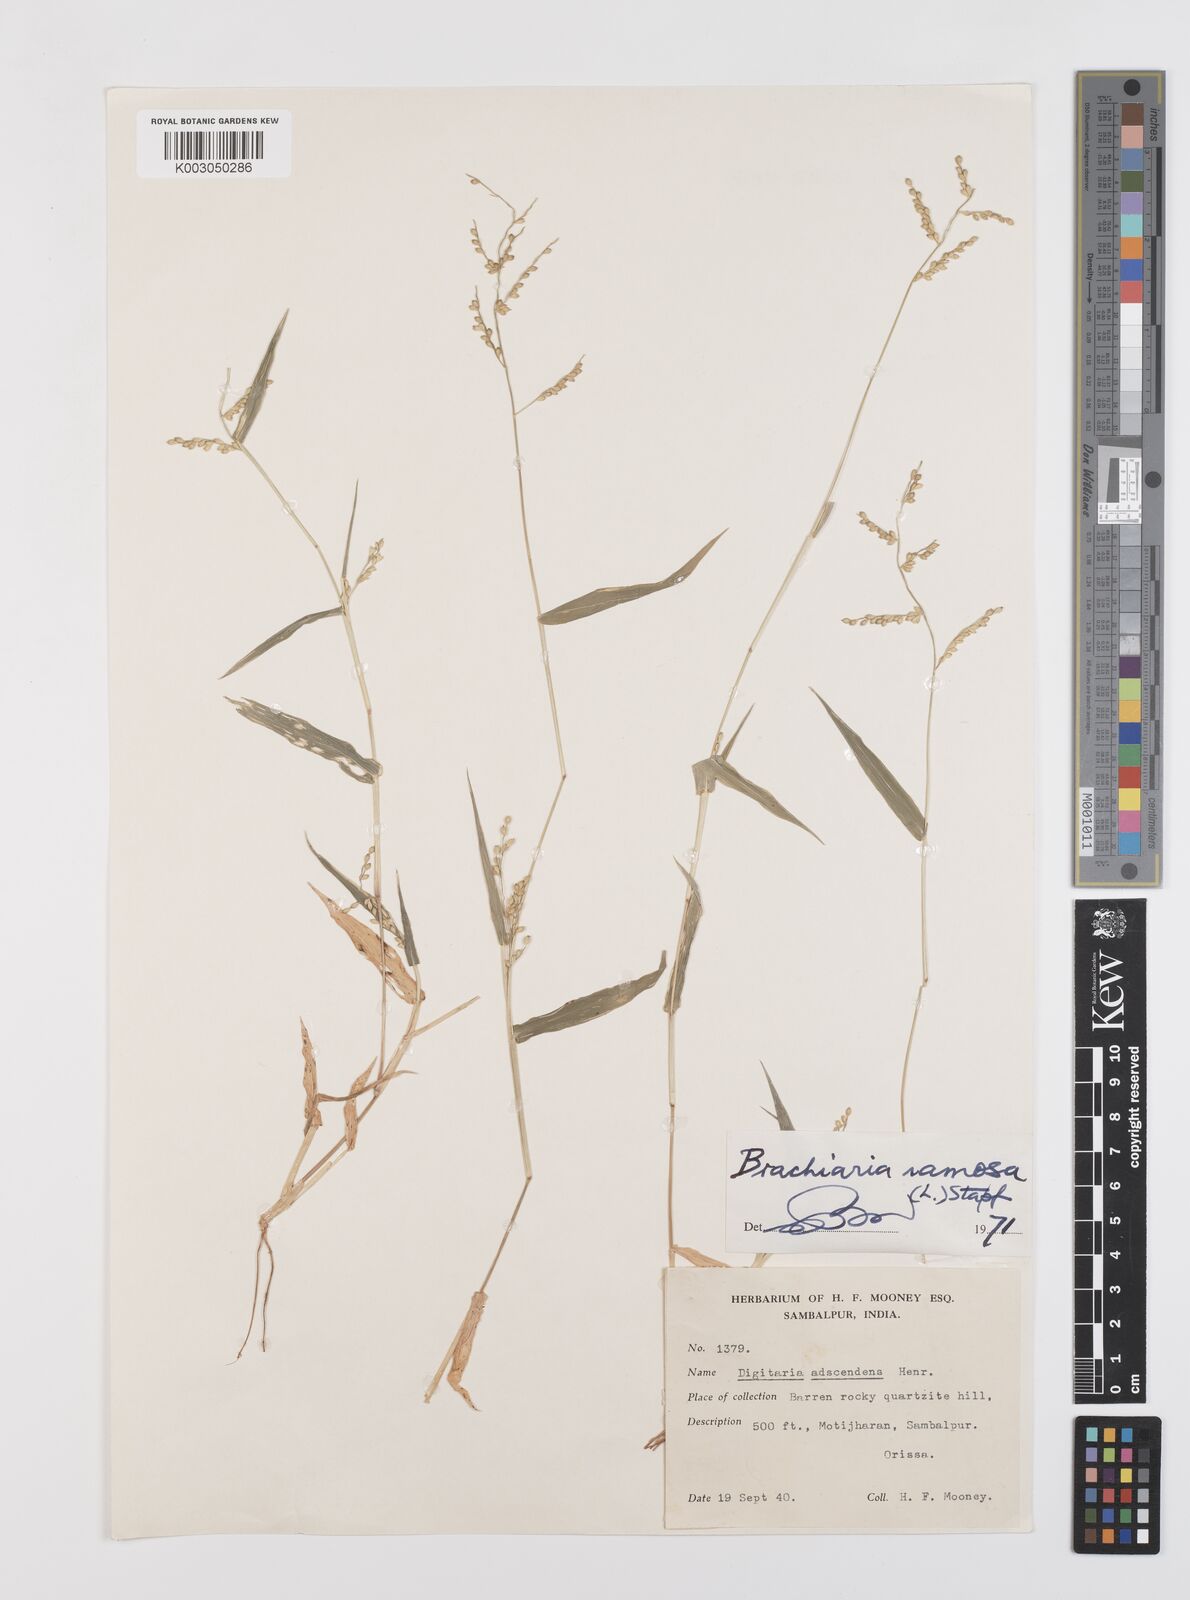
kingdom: Plantae
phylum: Tracheophyta
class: Liliopsida
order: Poales
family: Poaceae
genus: Urochloa
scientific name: Urochloa ramosa
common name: Browntop millet
